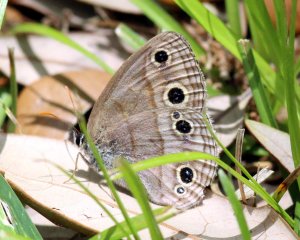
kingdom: Animalia
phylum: Arthropoda
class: Insecta
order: Lepidoptera
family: Nymphalidae
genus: Euptychia
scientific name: Euptychia cymela
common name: Little Wood Satyr
